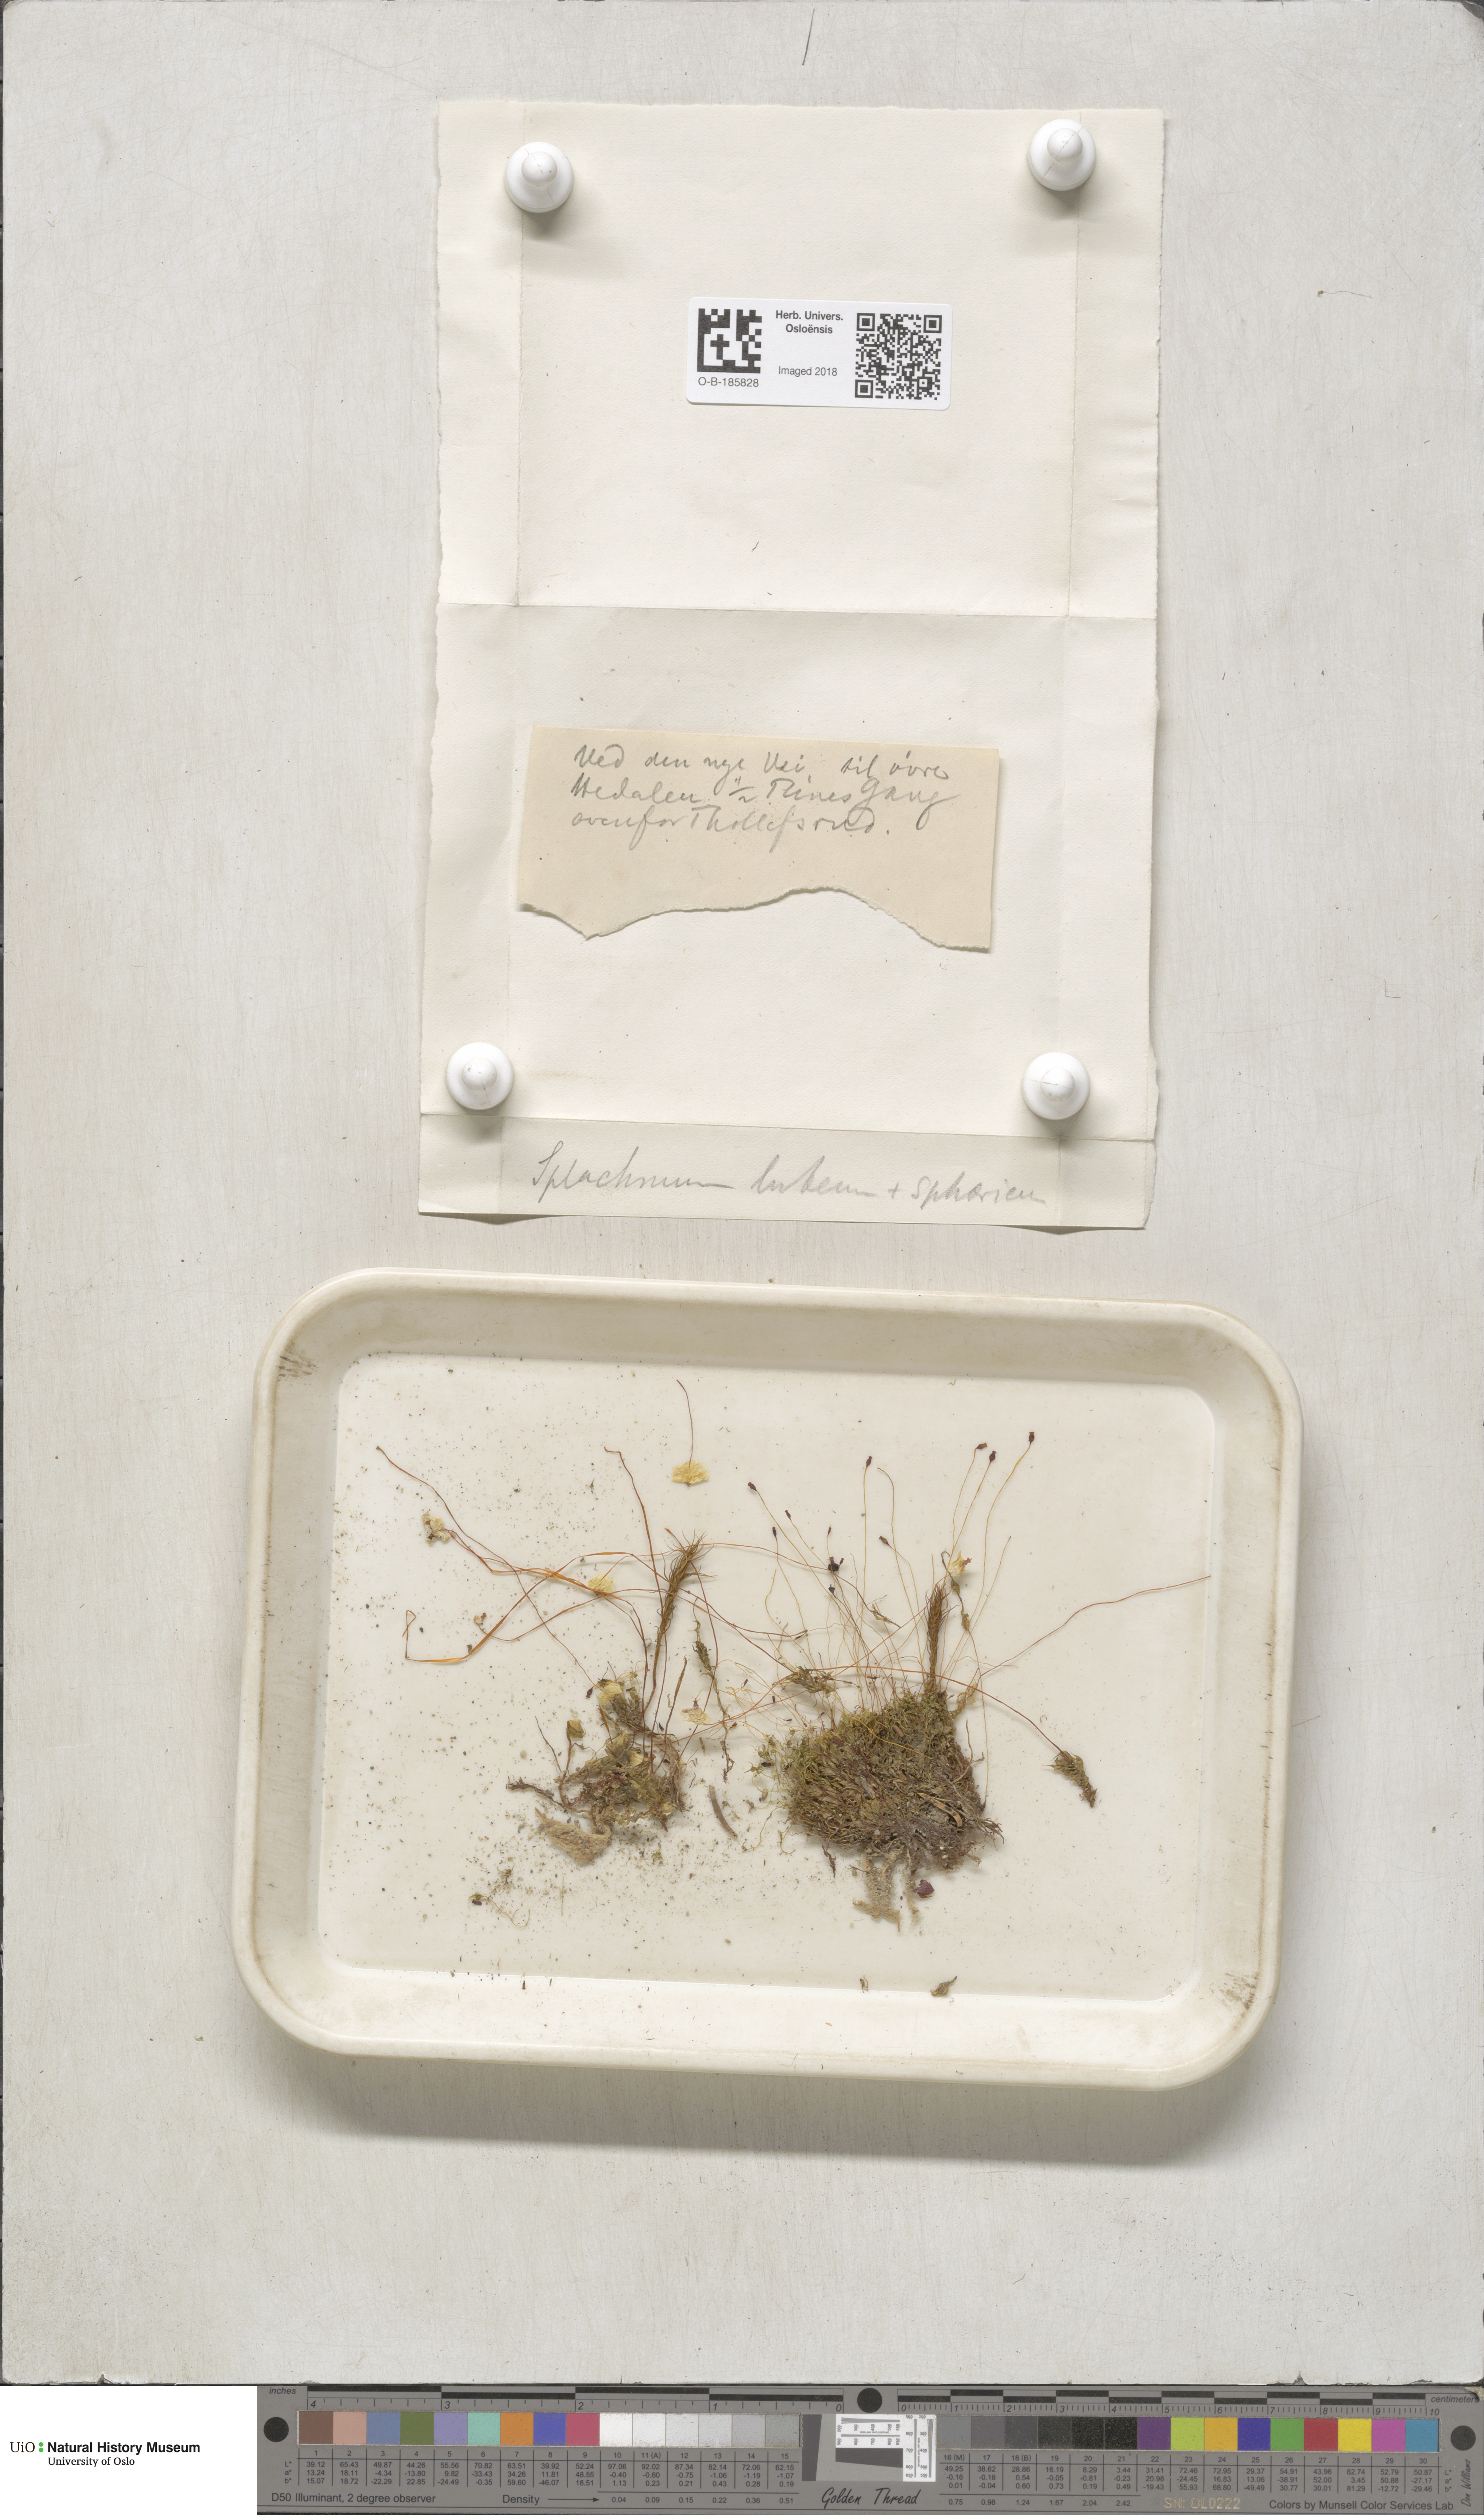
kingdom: Plantae
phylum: Bryophyta
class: Bryopsida
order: Splachnales
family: Splachnaceae
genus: Splachnum
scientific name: Splachnum luteum
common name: Yellow dung moss
